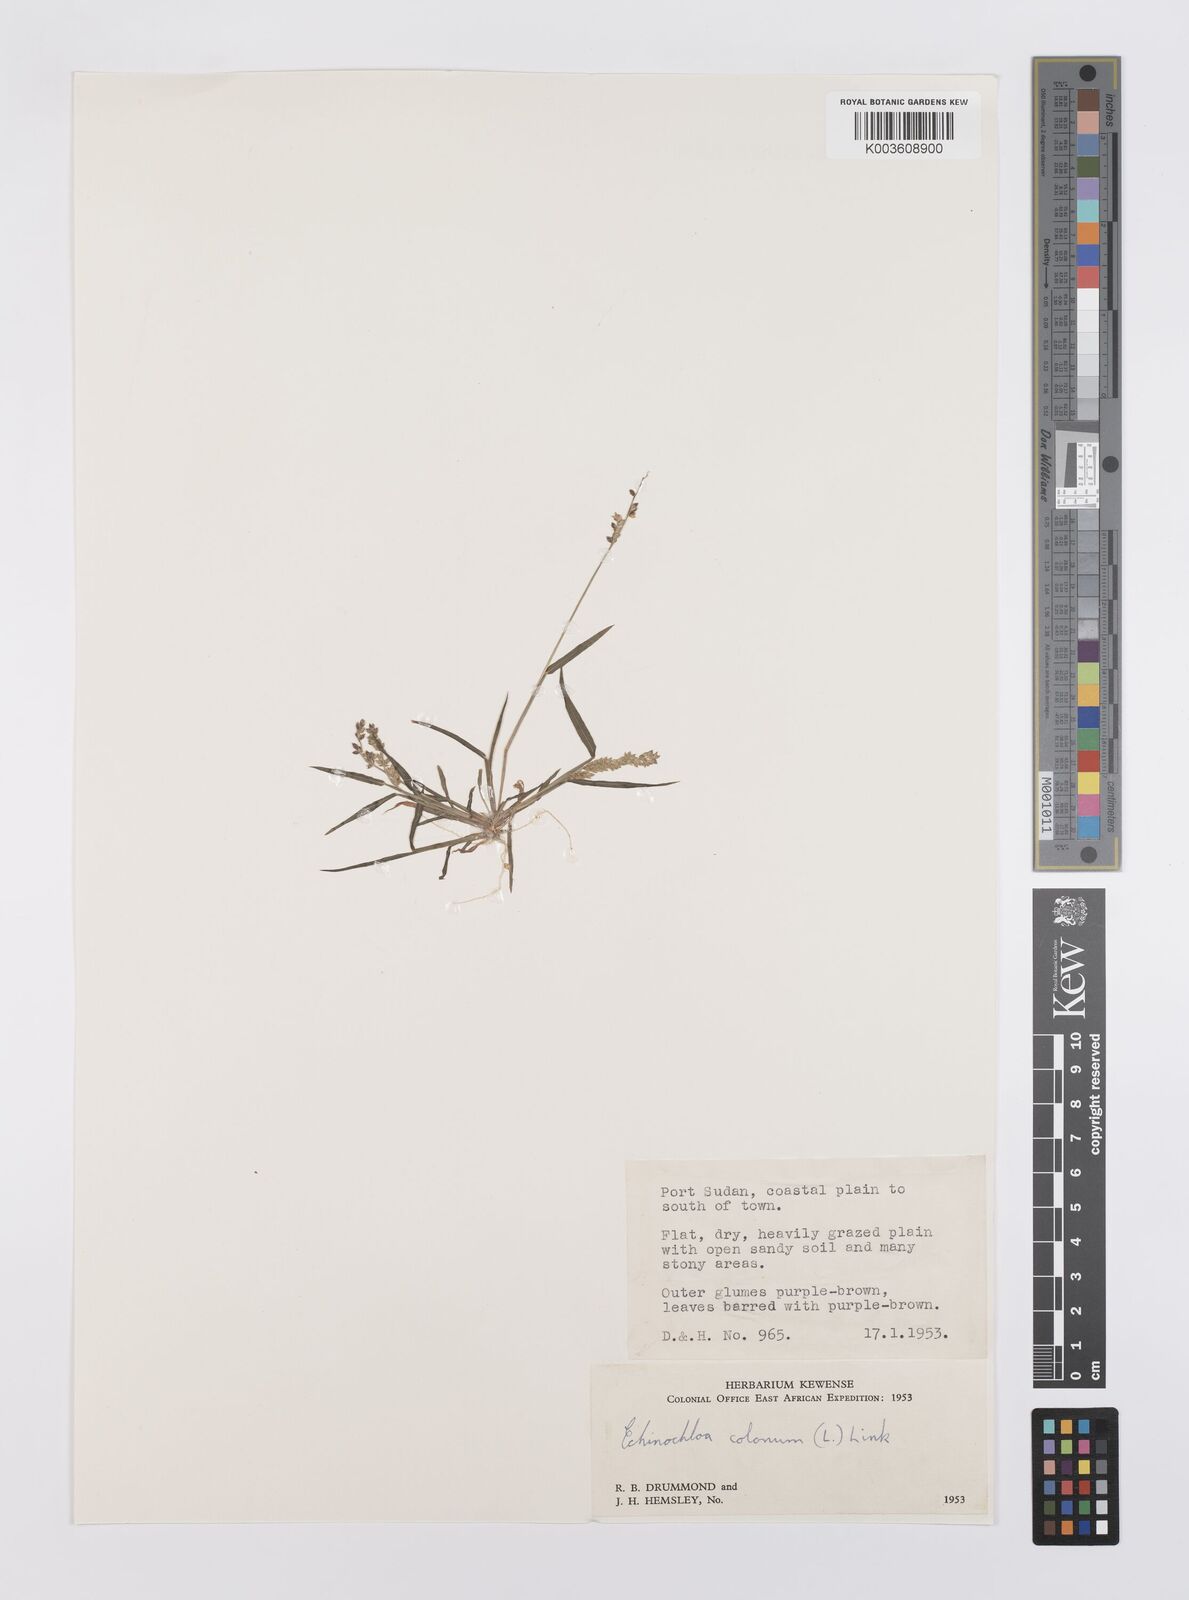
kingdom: Plantae
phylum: Tracheophyta
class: Liliopsida
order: Poales
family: Poaceae
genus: Echinochloa
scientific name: Echinochloa colonum
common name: Jungle rice
